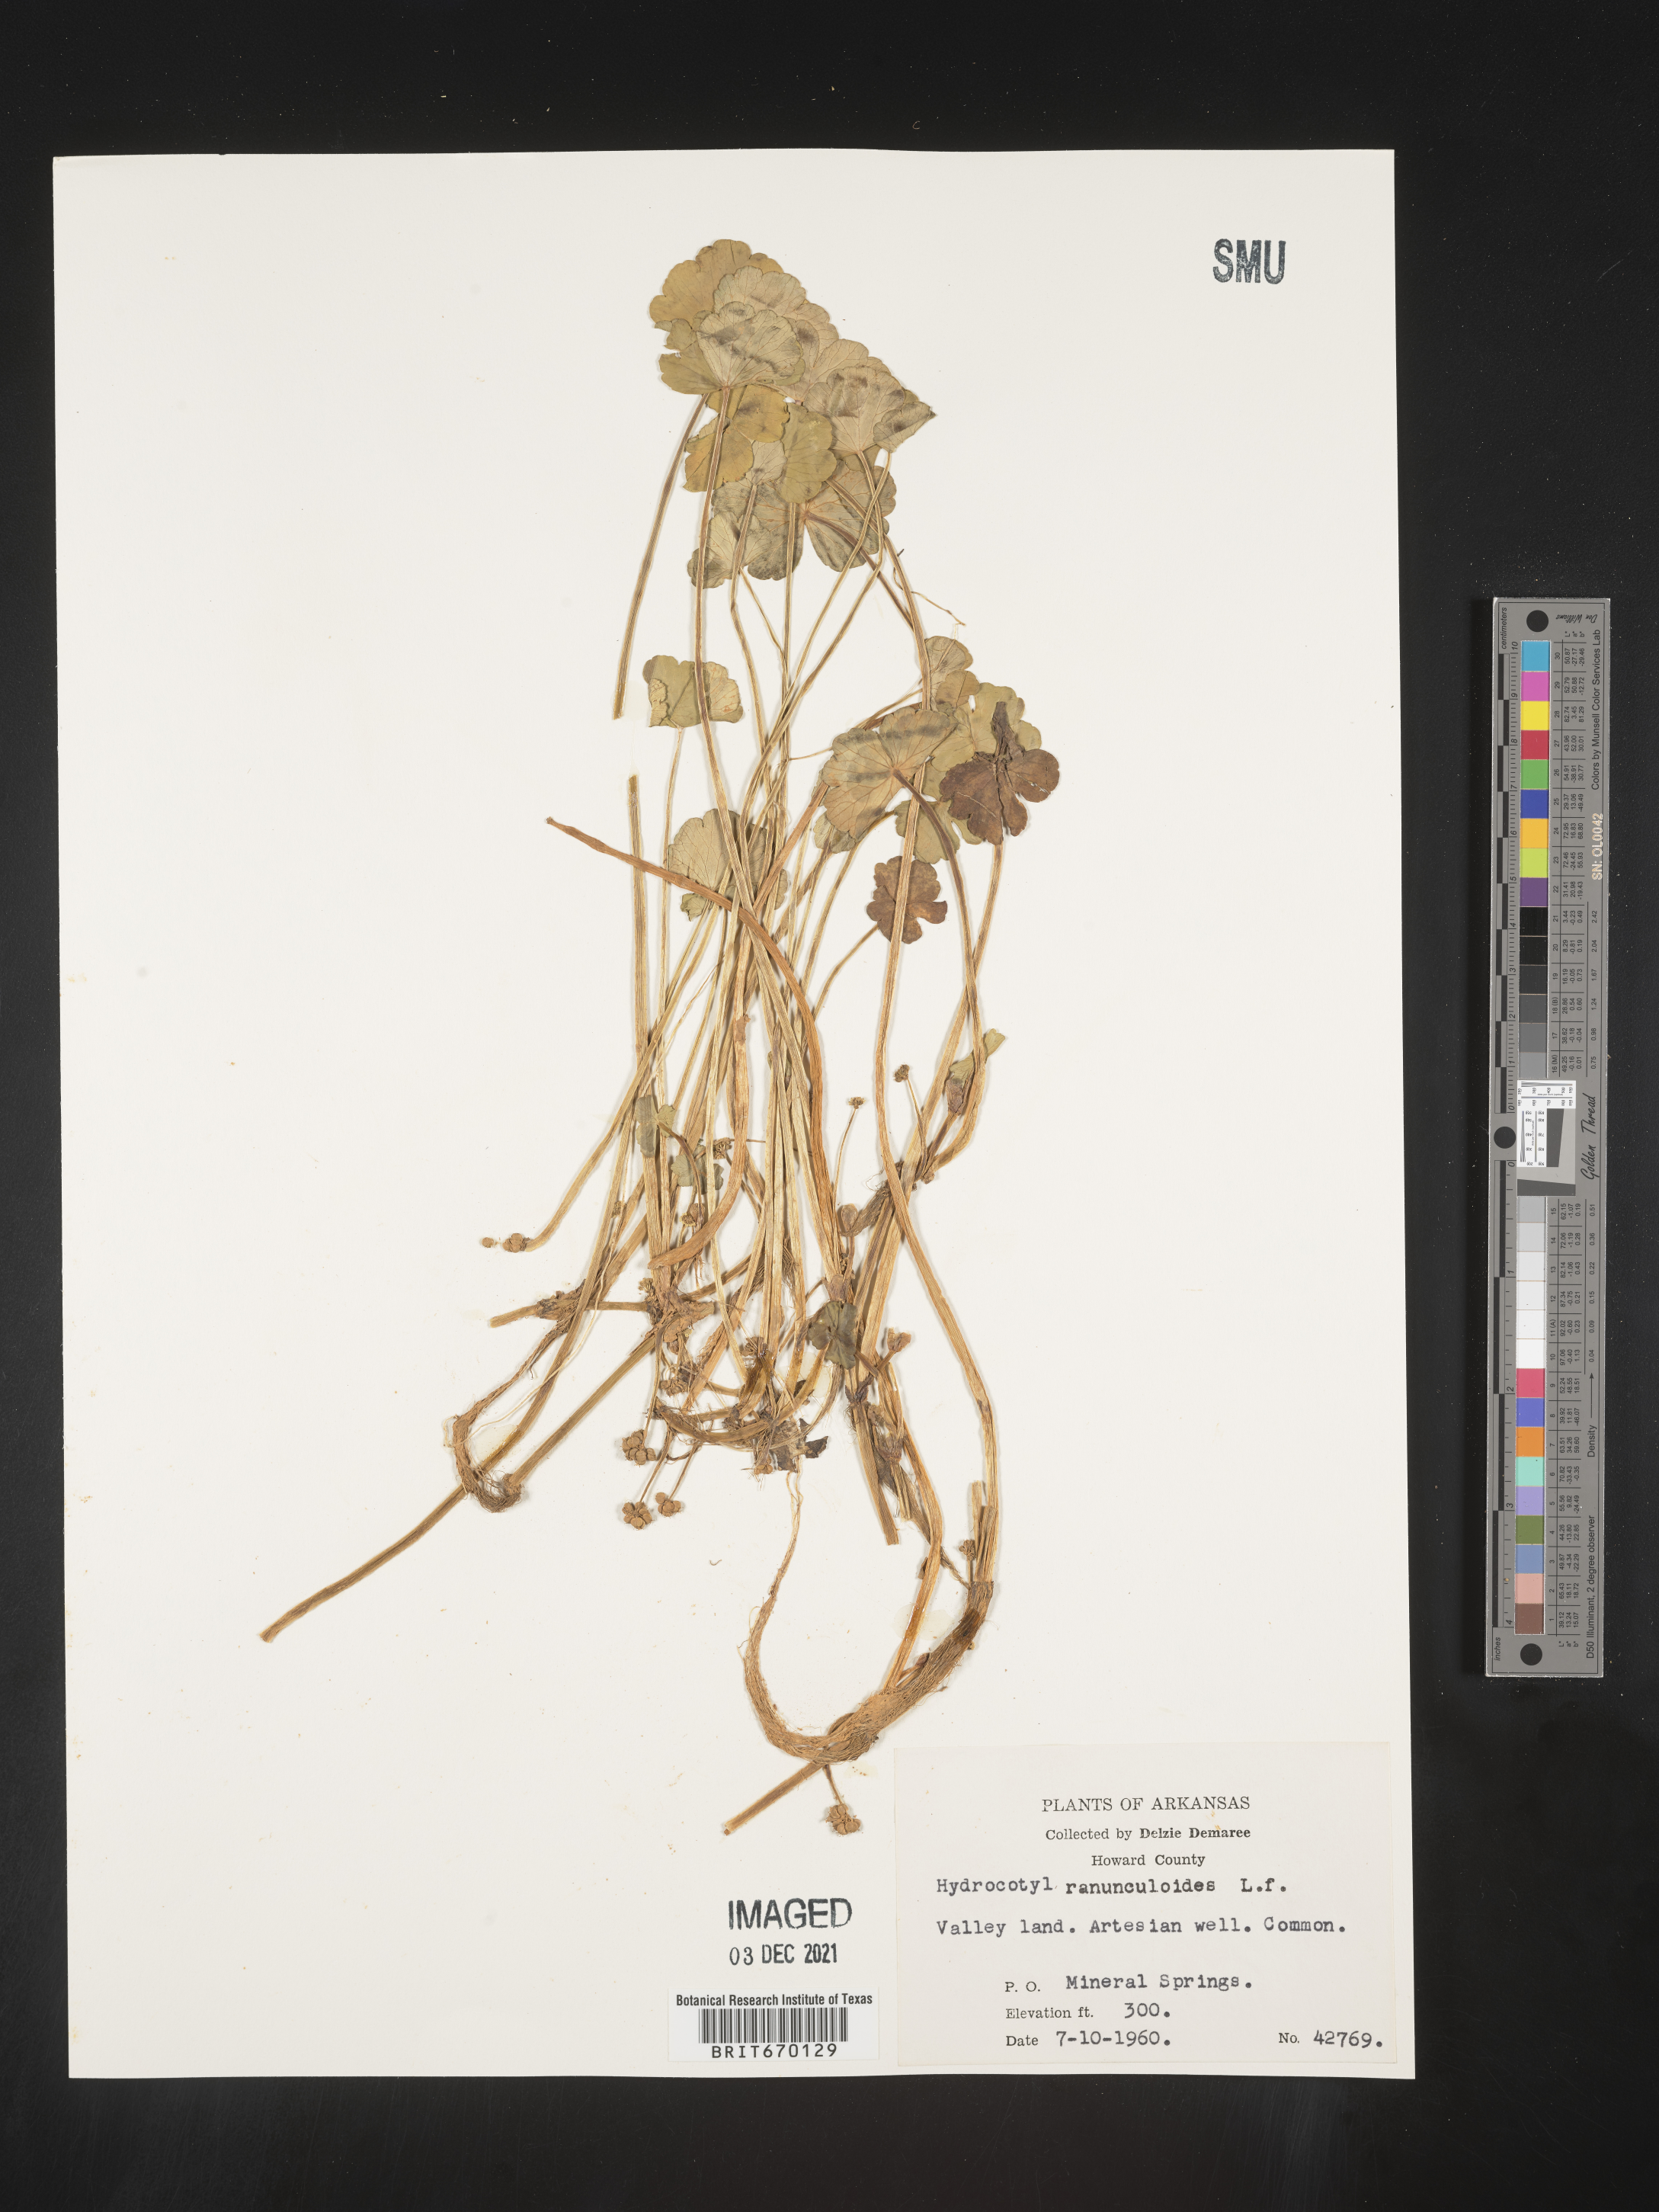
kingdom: Plantae
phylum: Tracheophyta
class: Magnoliopsida
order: Apiales
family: Araliaceae
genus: Hydrocotyle
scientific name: Hydrocotyle ranunculoides
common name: Floating pennywort
